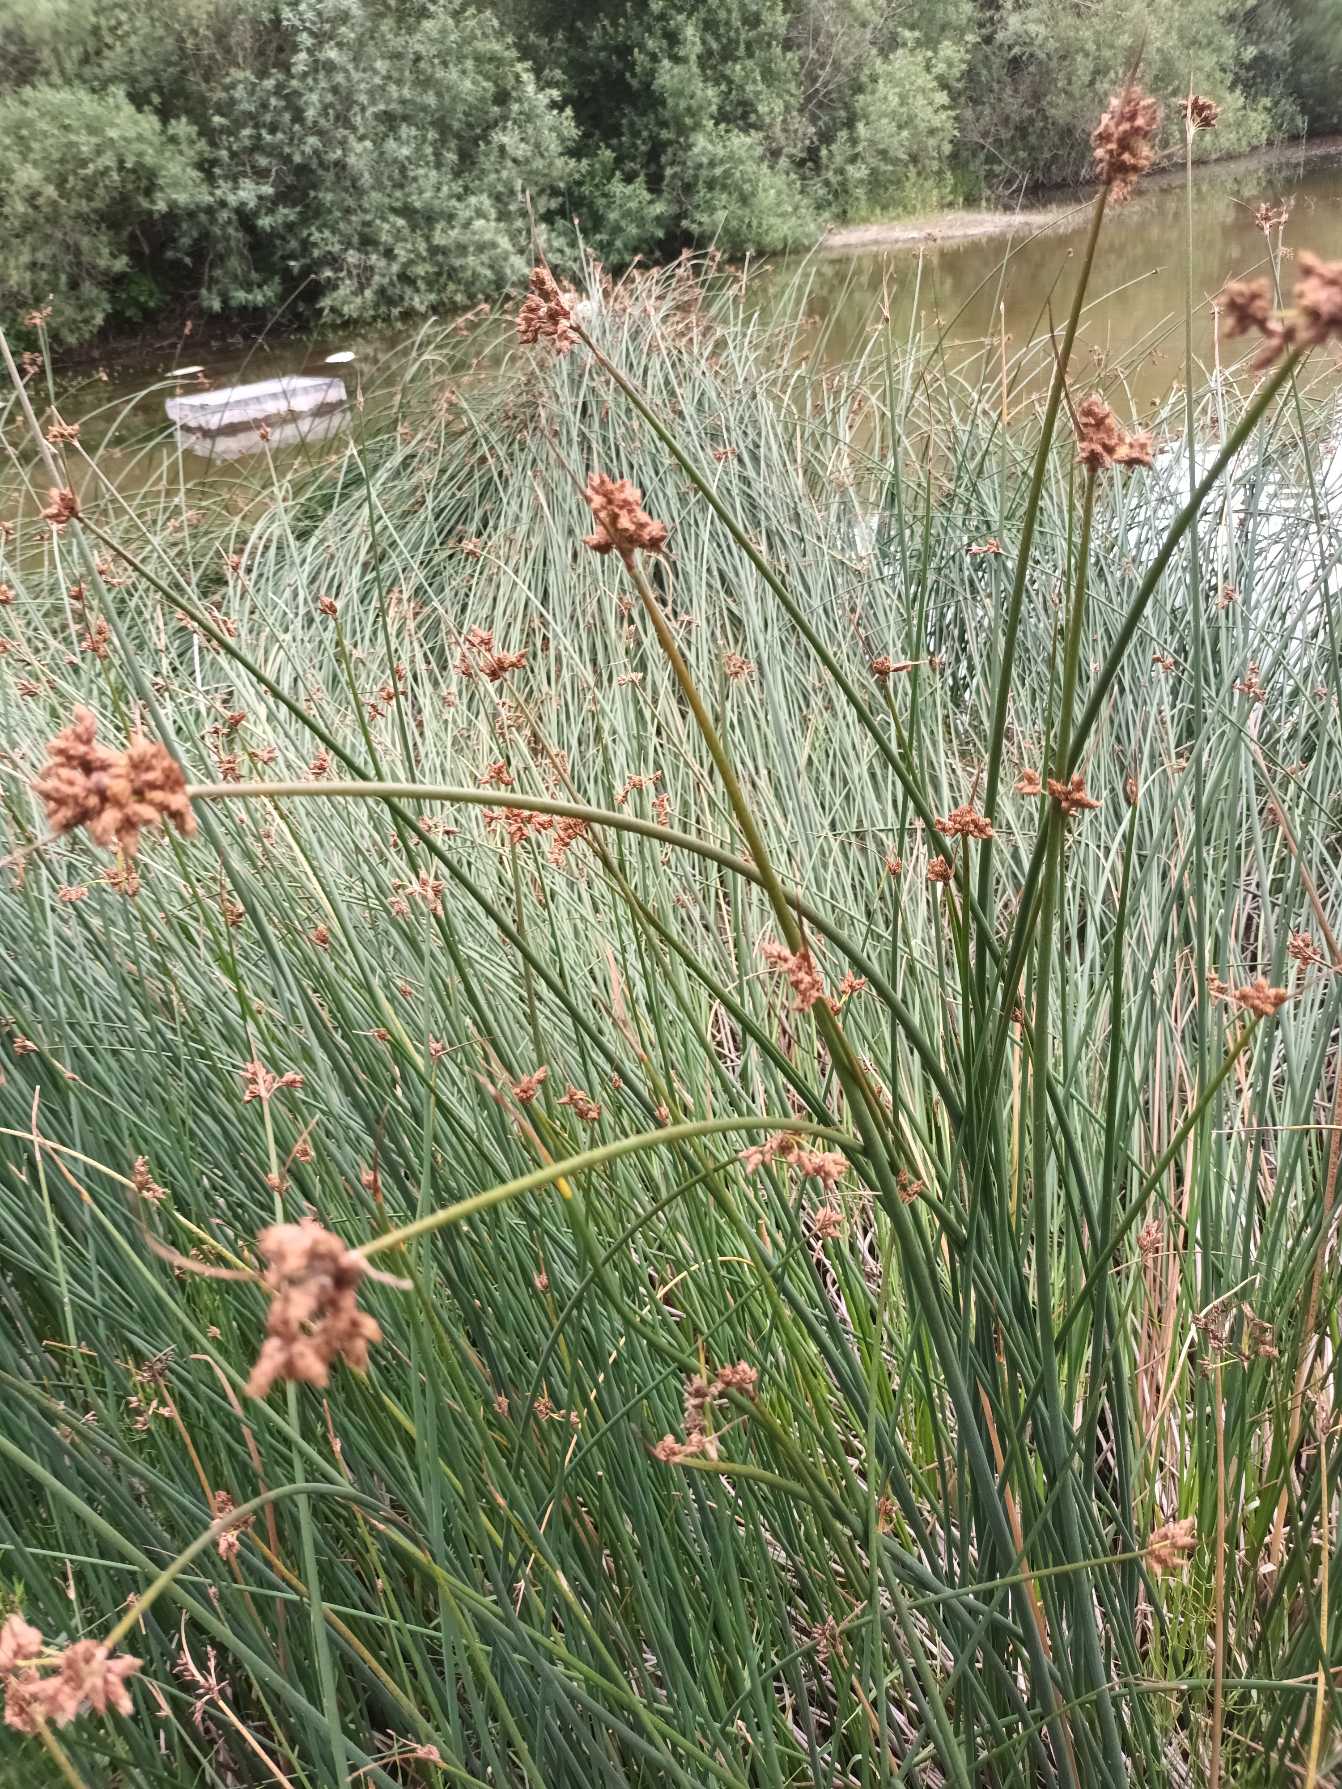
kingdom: Plantae
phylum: Tracheophyta
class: Liliopsida
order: Poales
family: Cyperaceae
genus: Schoenoplectus
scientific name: Schoenoplectus lacustris
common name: Sø-kogleaks
